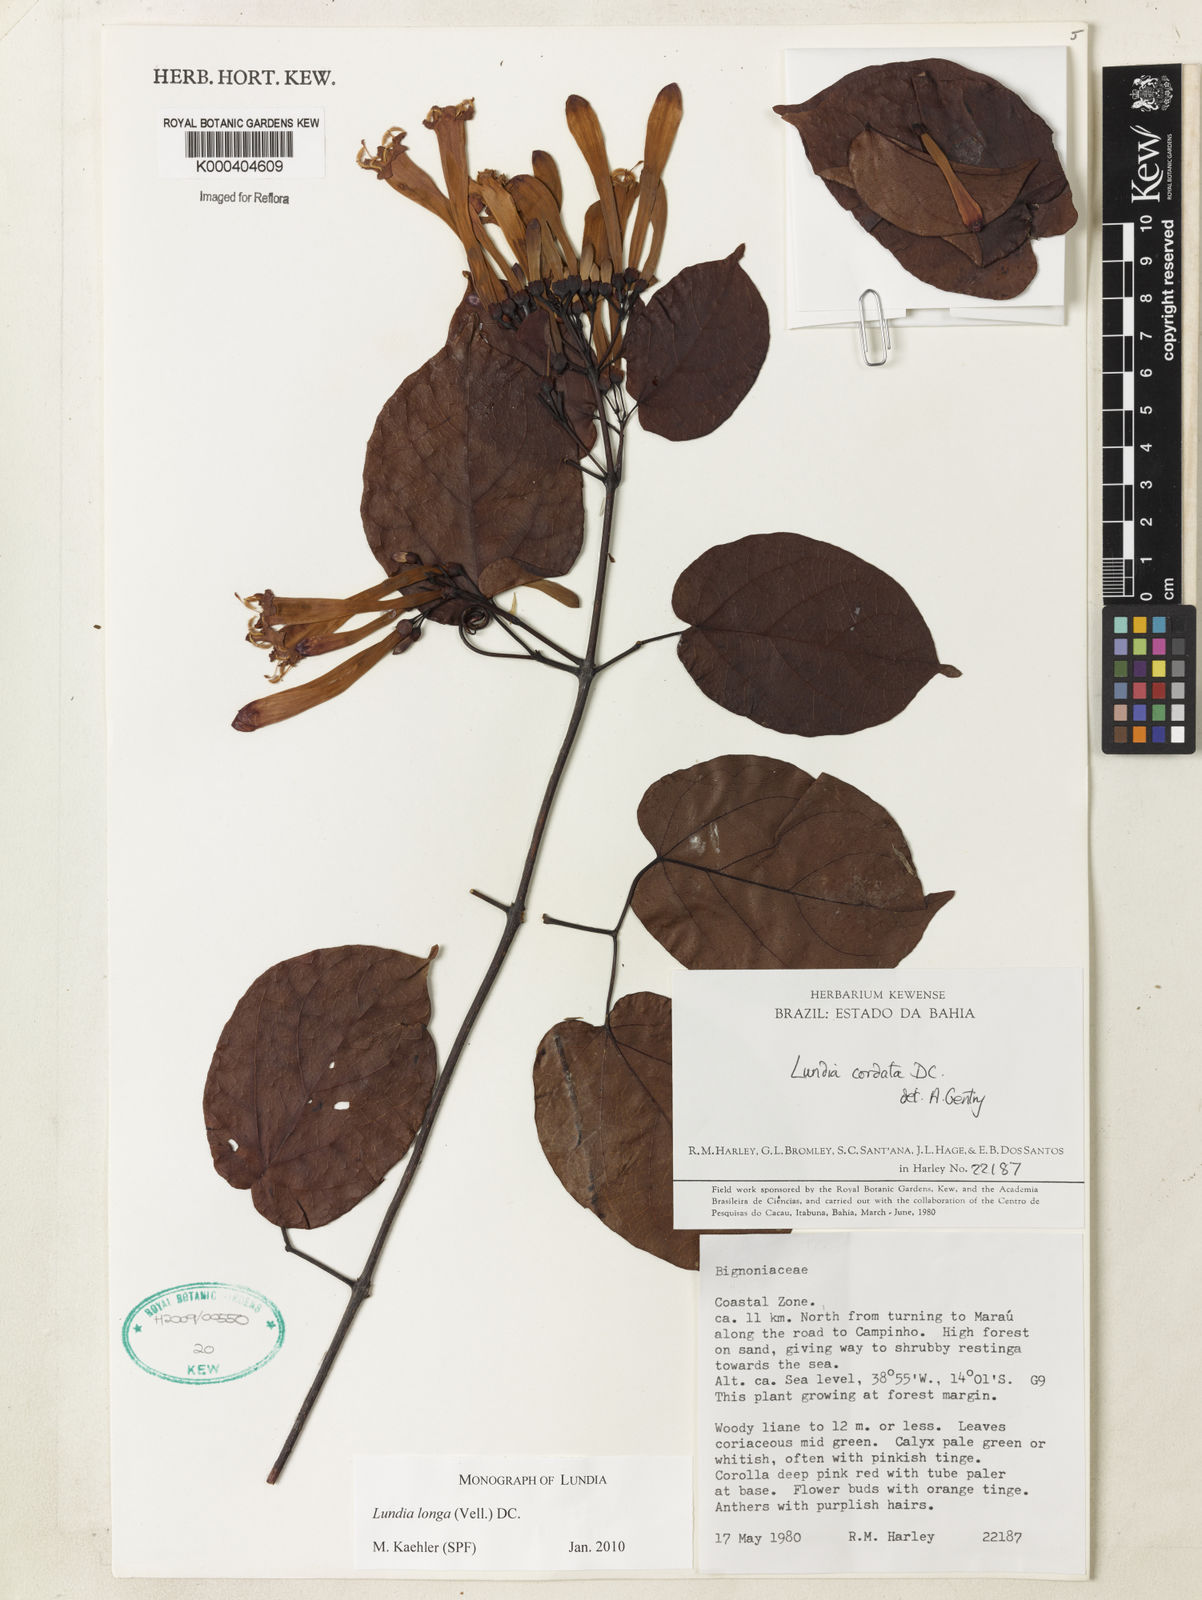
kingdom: Plantae
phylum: Tracheophyta
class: Magnoliopsida
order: Lamiales
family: Bignoniaceae
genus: Lundia
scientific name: Lundia longa
